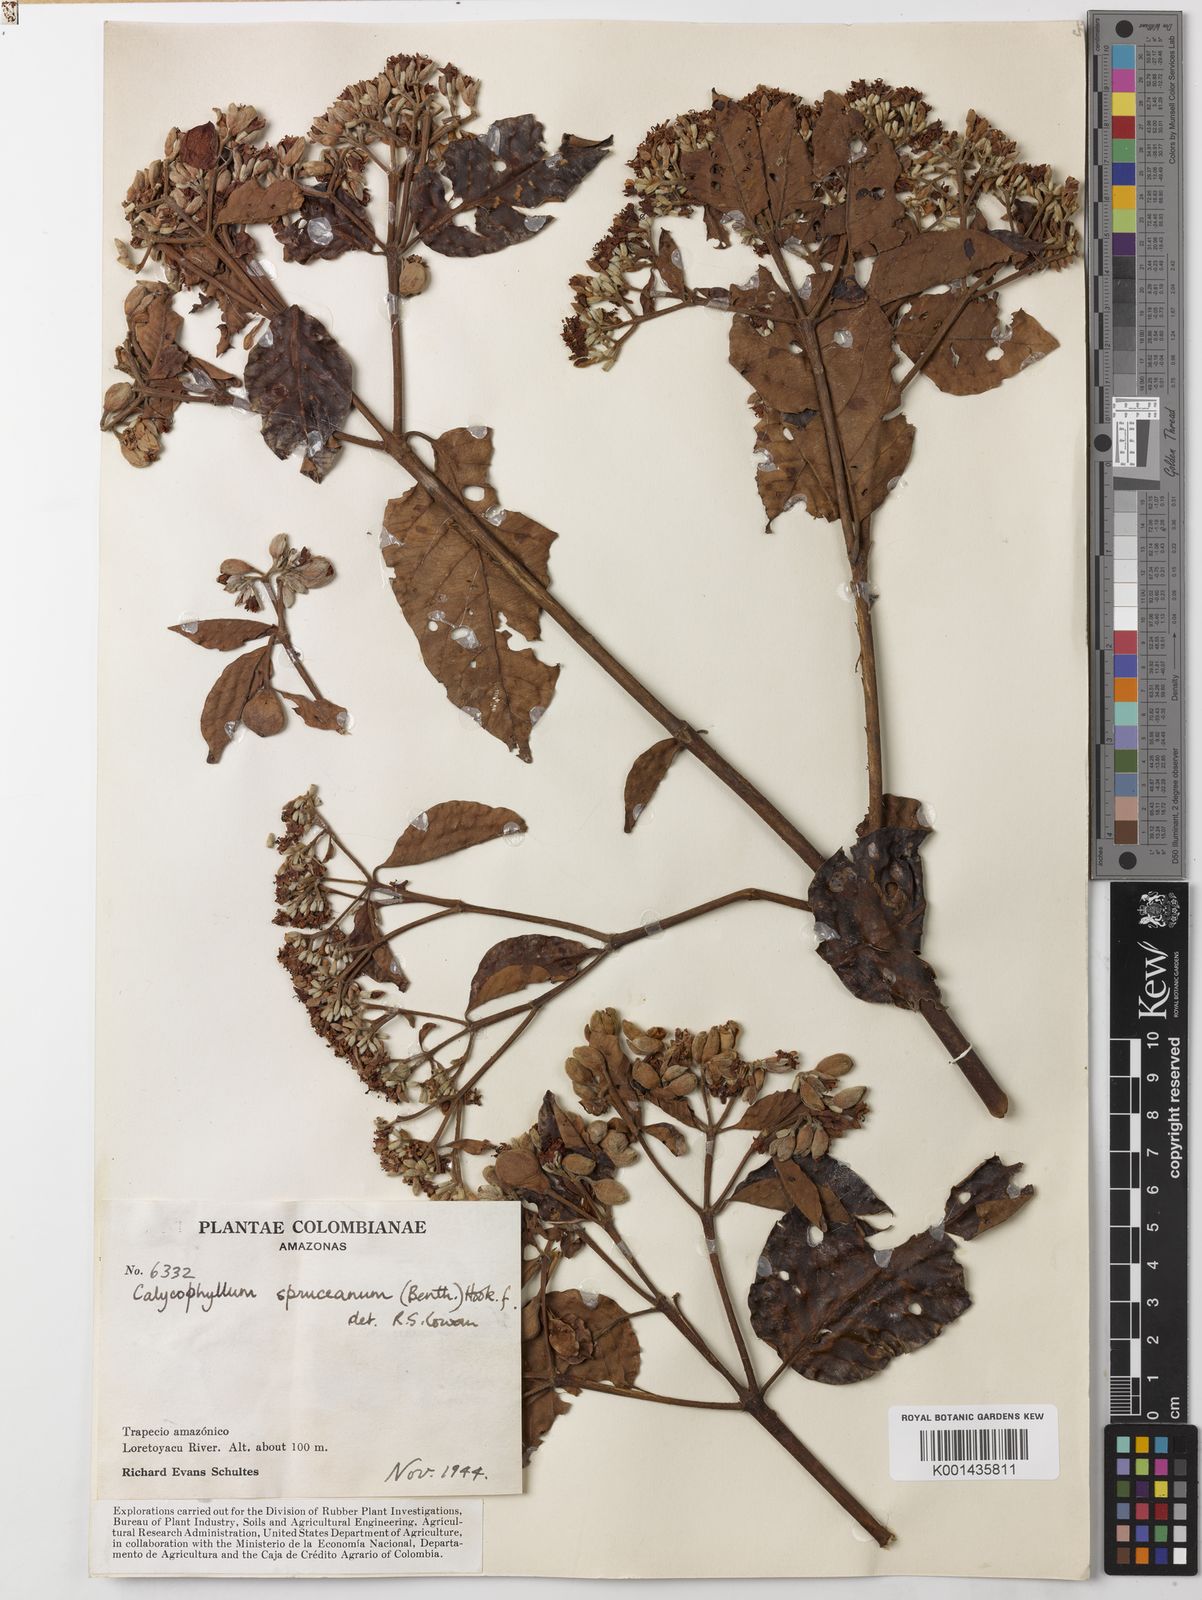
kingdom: Plantae
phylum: Tracheophyta
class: Magnoliopsida
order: Gentianales
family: Rubiaceae
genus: Calycophyllum
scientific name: Calycophyllum spruceanum
